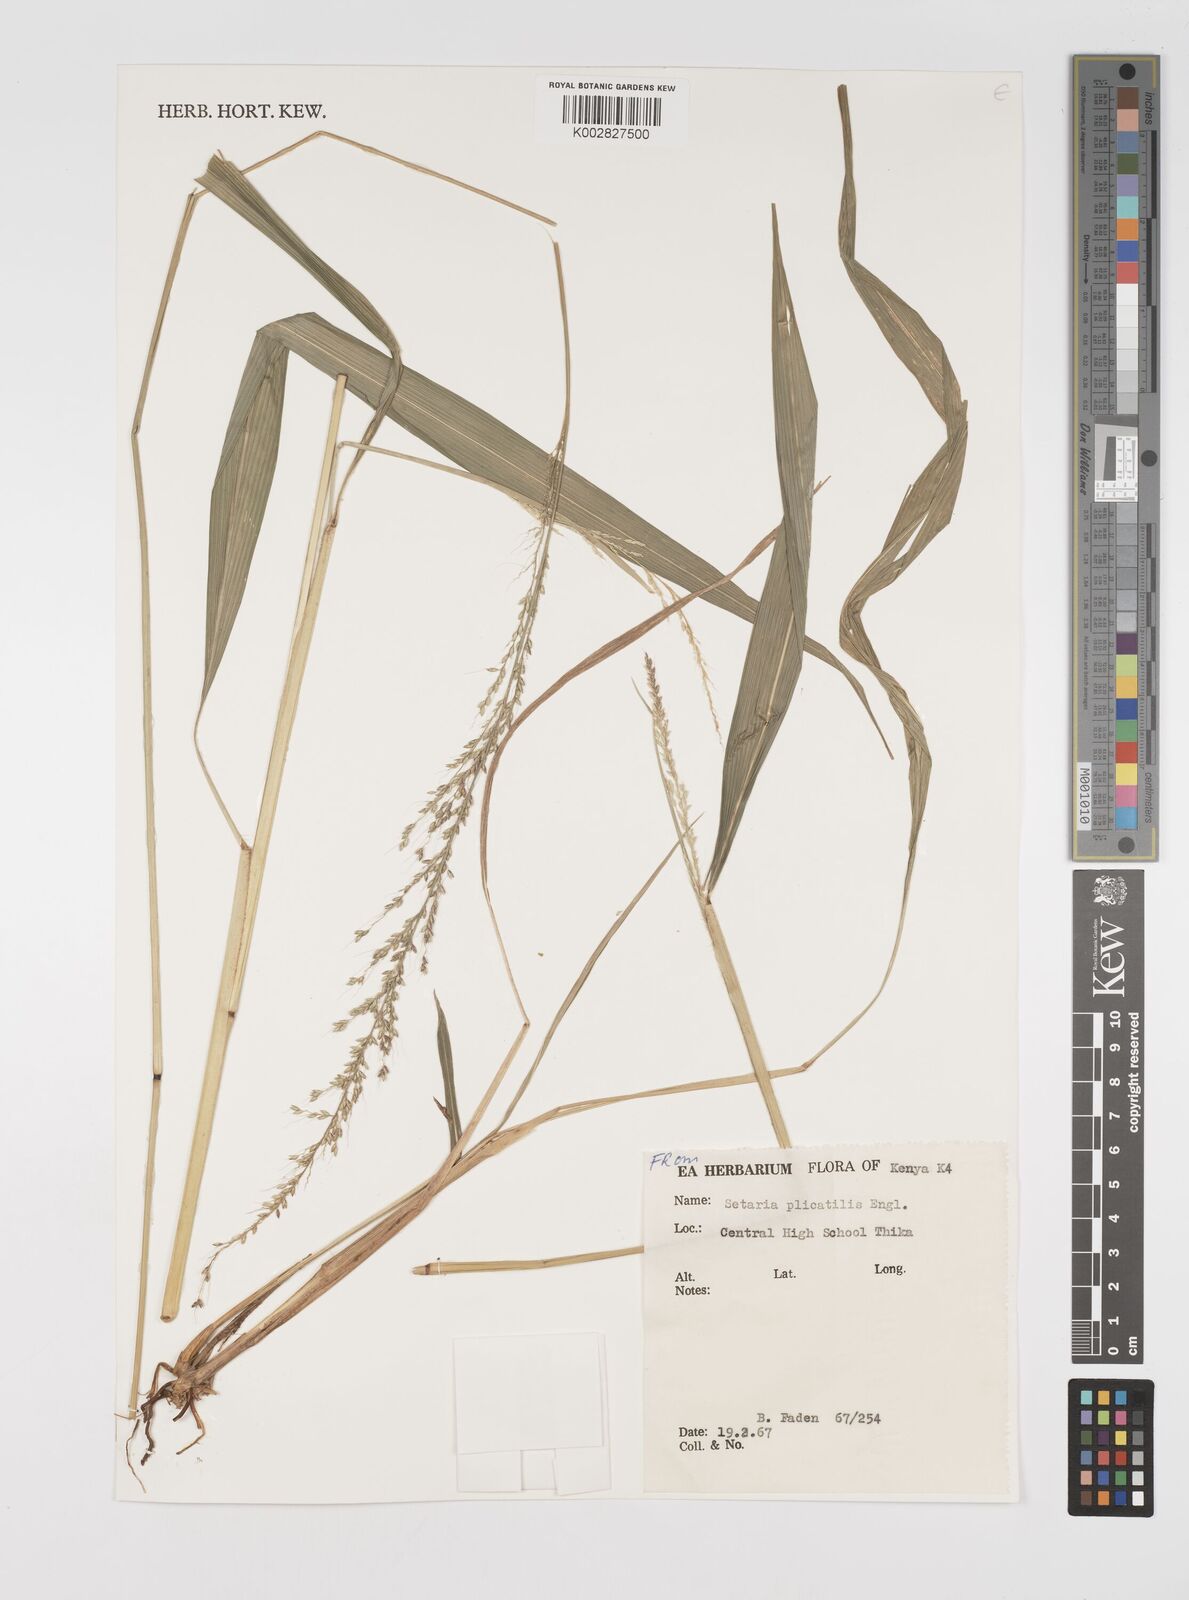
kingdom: Plantae
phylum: Tracheophyta
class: Liliopsida
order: Poales
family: Poaceae
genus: Setaria
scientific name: Setaria megaphylla
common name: Bigleaf bristlegrass
